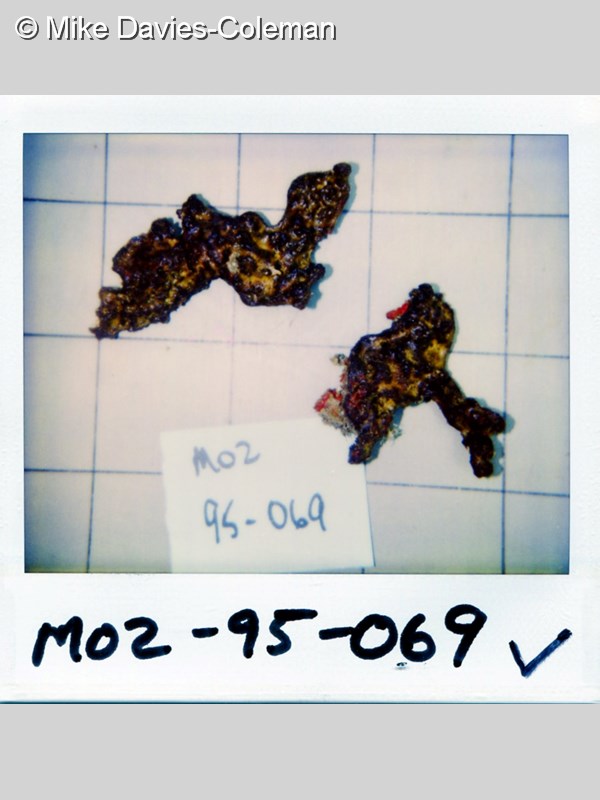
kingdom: Animalia
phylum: Porifera
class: Demospongiae
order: Verongiida
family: Pseudoceratinidae
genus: Pseudoceratina
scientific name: Pseudoceratina
